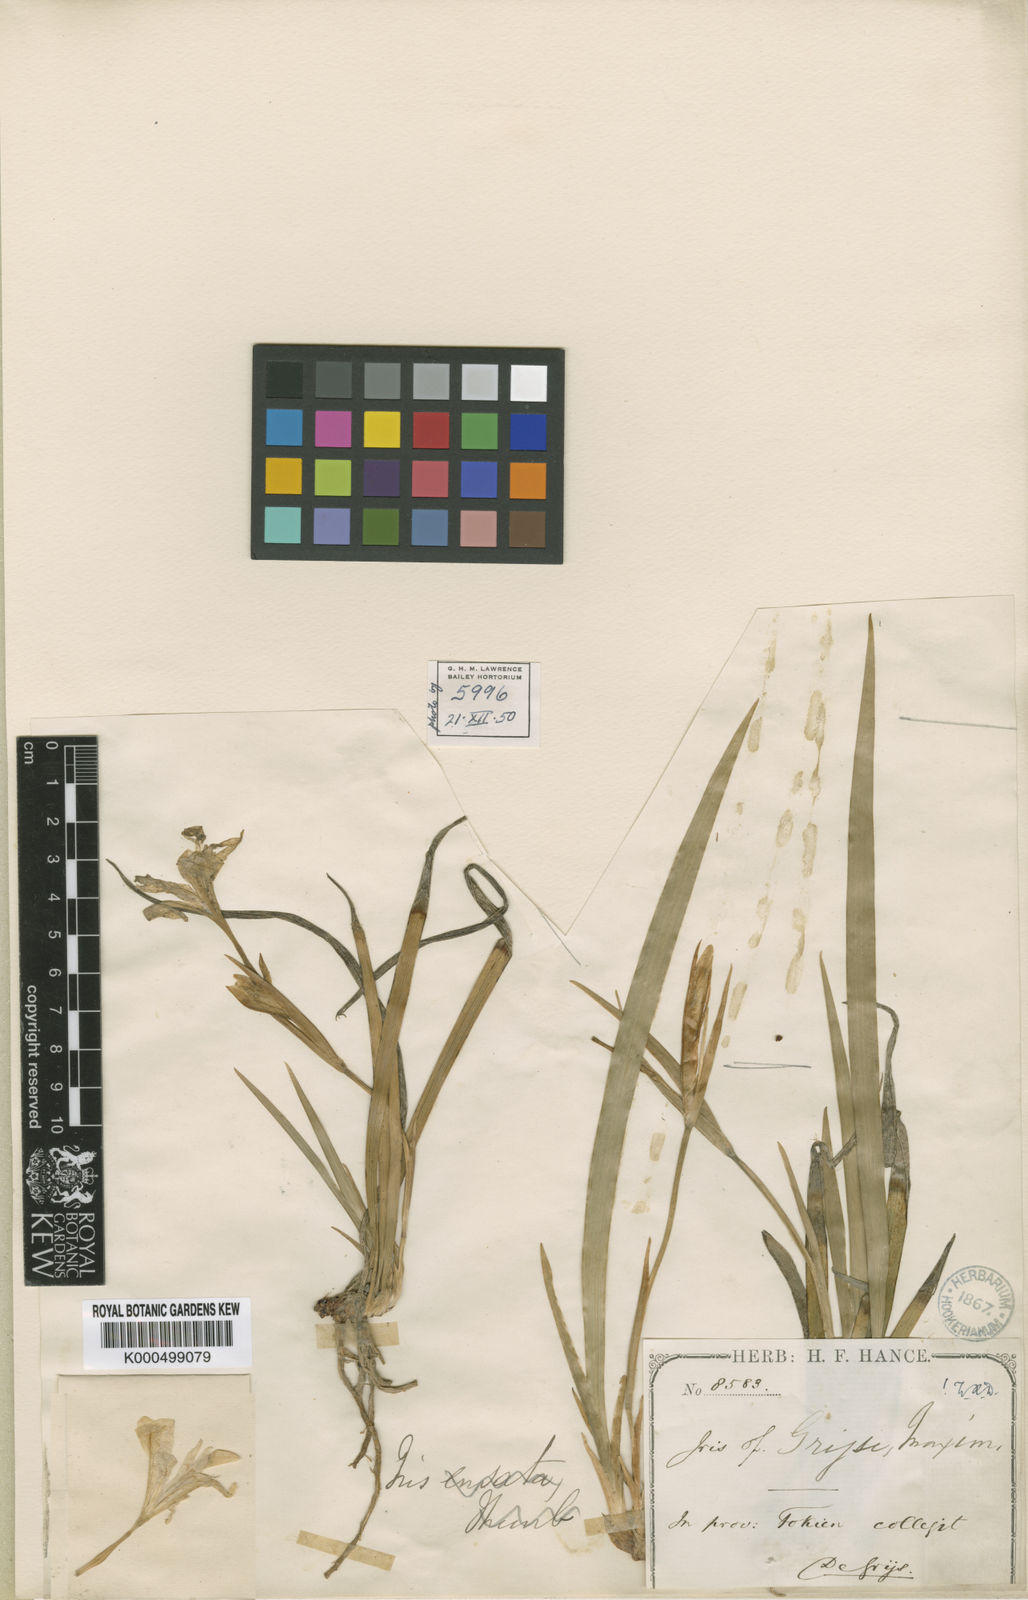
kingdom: Plantae
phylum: Tracheophyta
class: Liliopsida
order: Asparagales
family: Iridaceae
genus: Iris
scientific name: Iris speculatrix
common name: Small-flower iris
